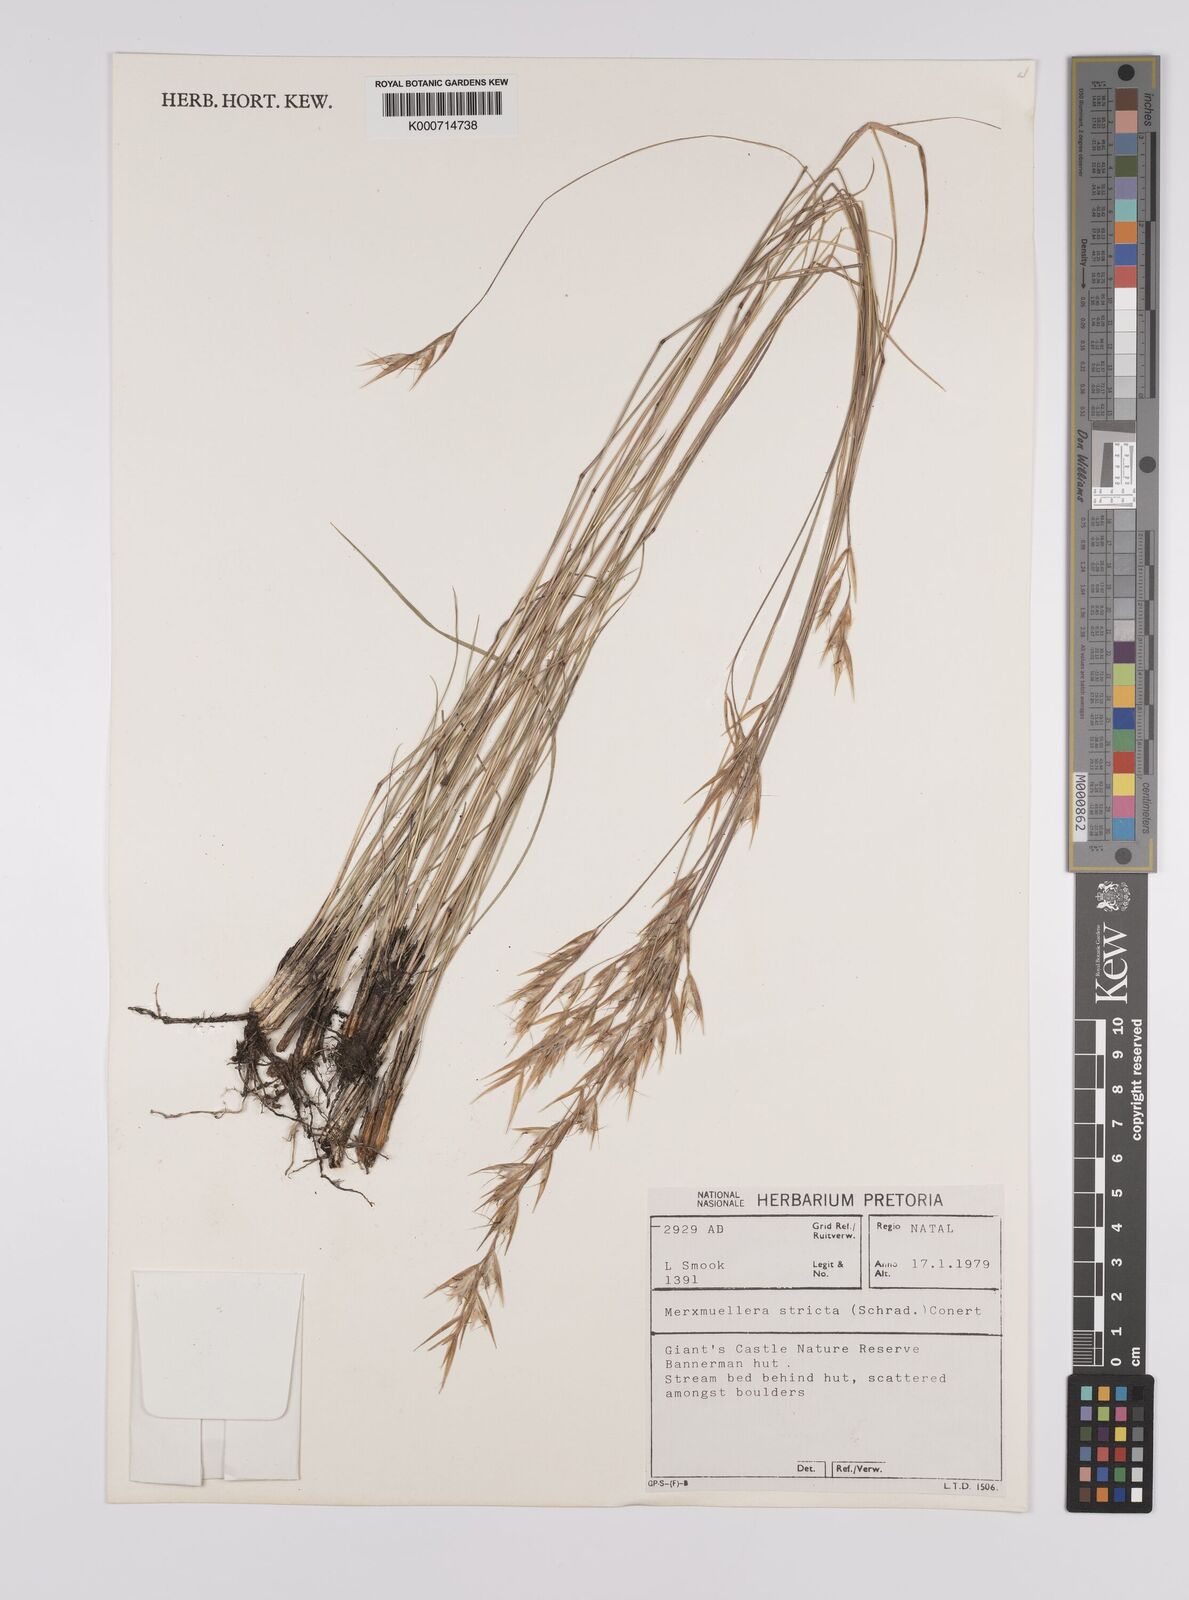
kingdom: Plantae
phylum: Tracheophyta
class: Liliopsida
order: Poales
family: Poaceae
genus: Rytidosperma
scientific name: Rytidosperma
